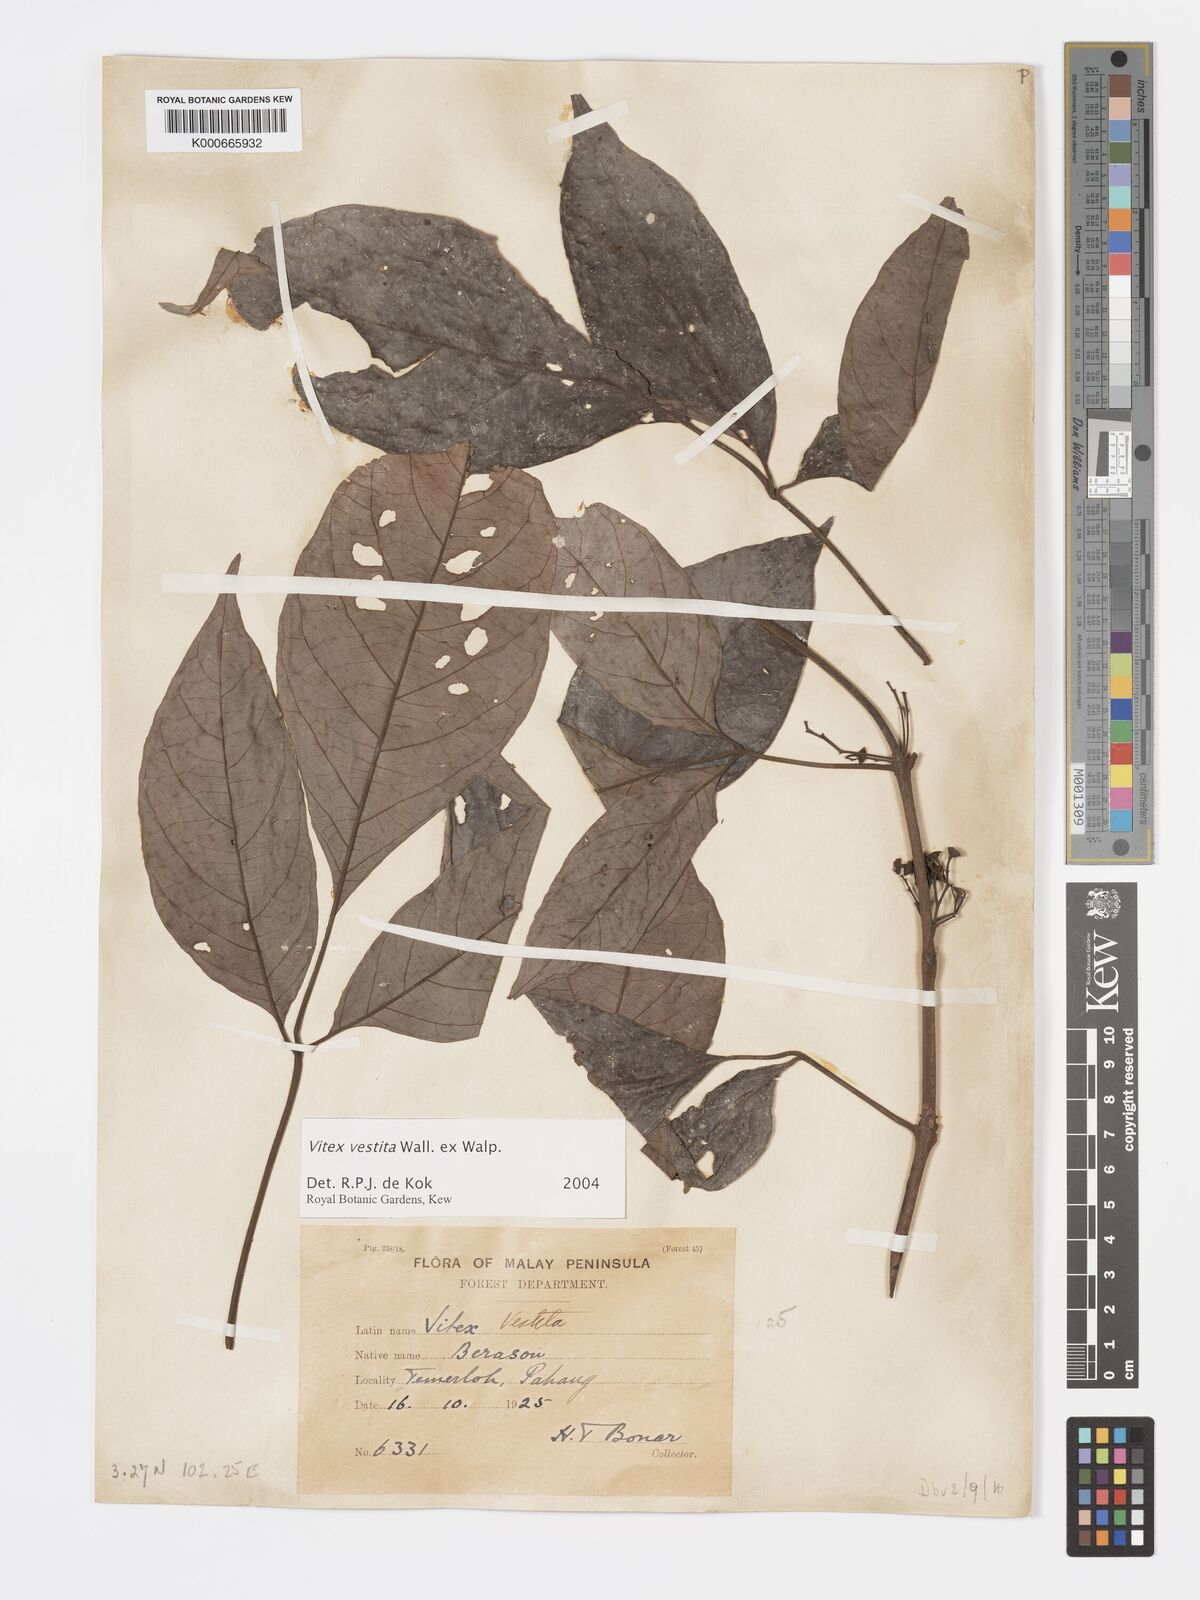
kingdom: Plantae
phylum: Tracheophyta
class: Magnoliopsida
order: Lamiales
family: Lamiaceae
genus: Vitex
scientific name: Vitex vestita
